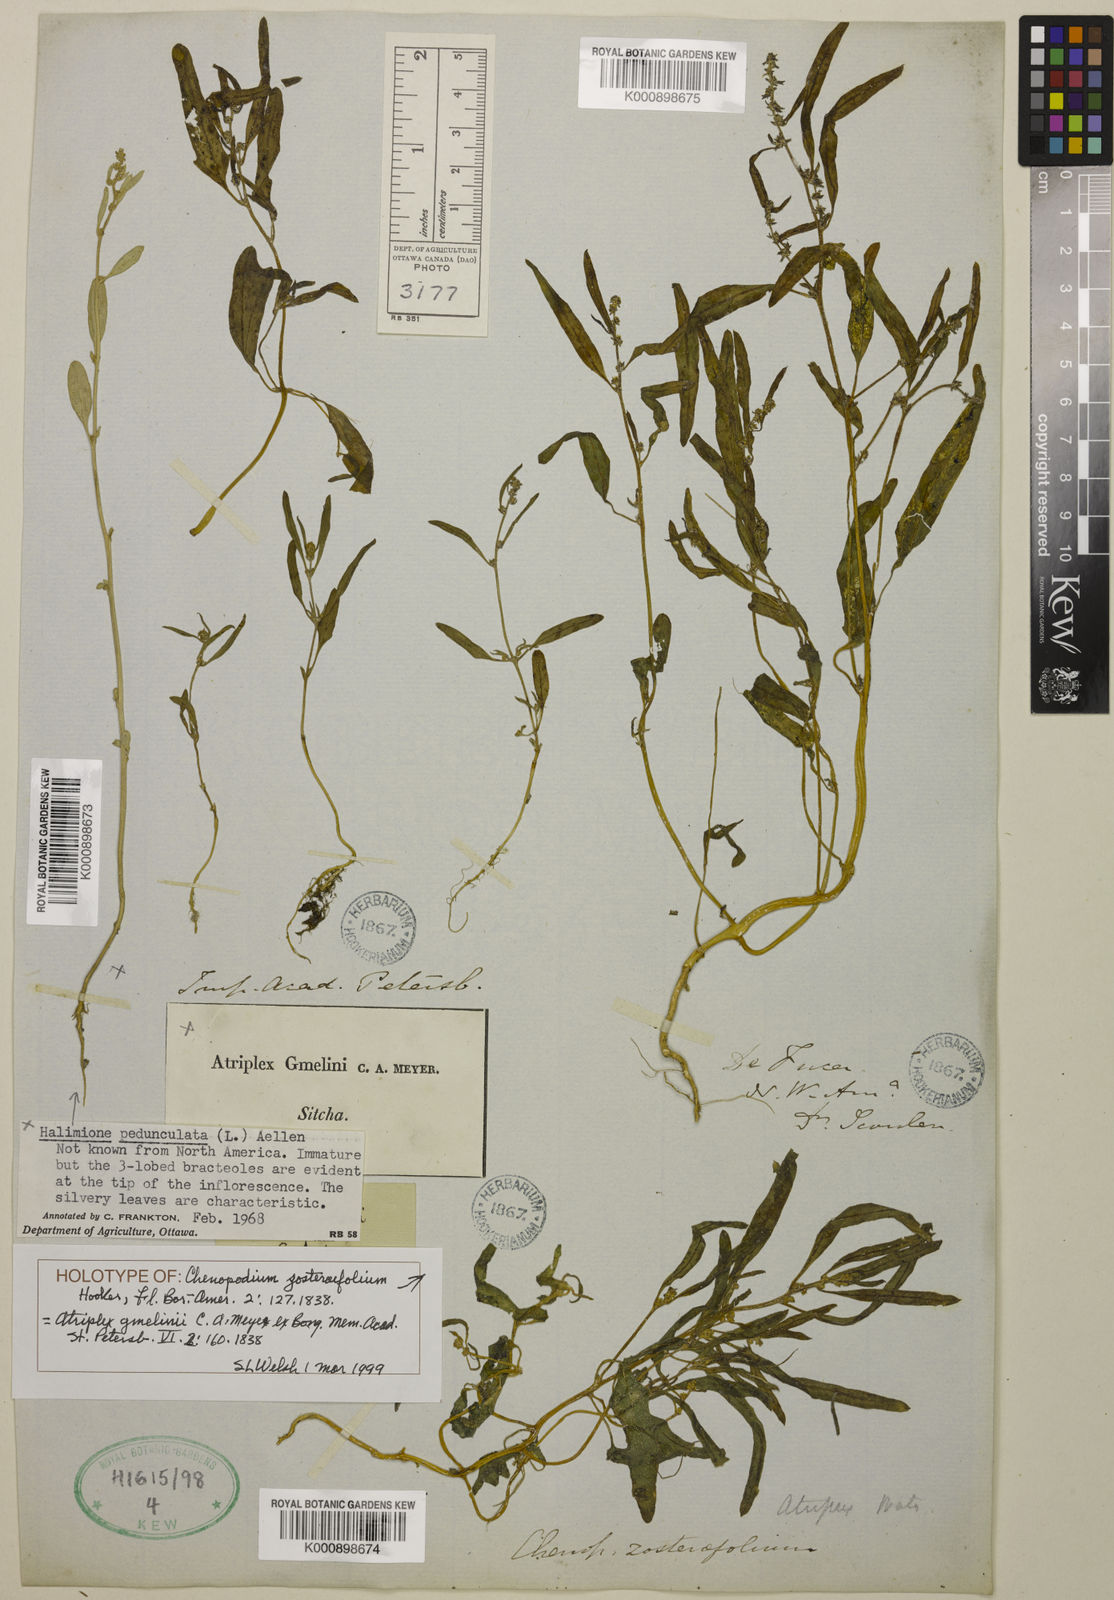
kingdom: Plantae
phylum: Tracheophyta
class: Magnoliopsida
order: Caryophyllales
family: Amaranthaceae
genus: Atriplex
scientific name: Atriplex gmelinii
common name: Gmelin's orach
